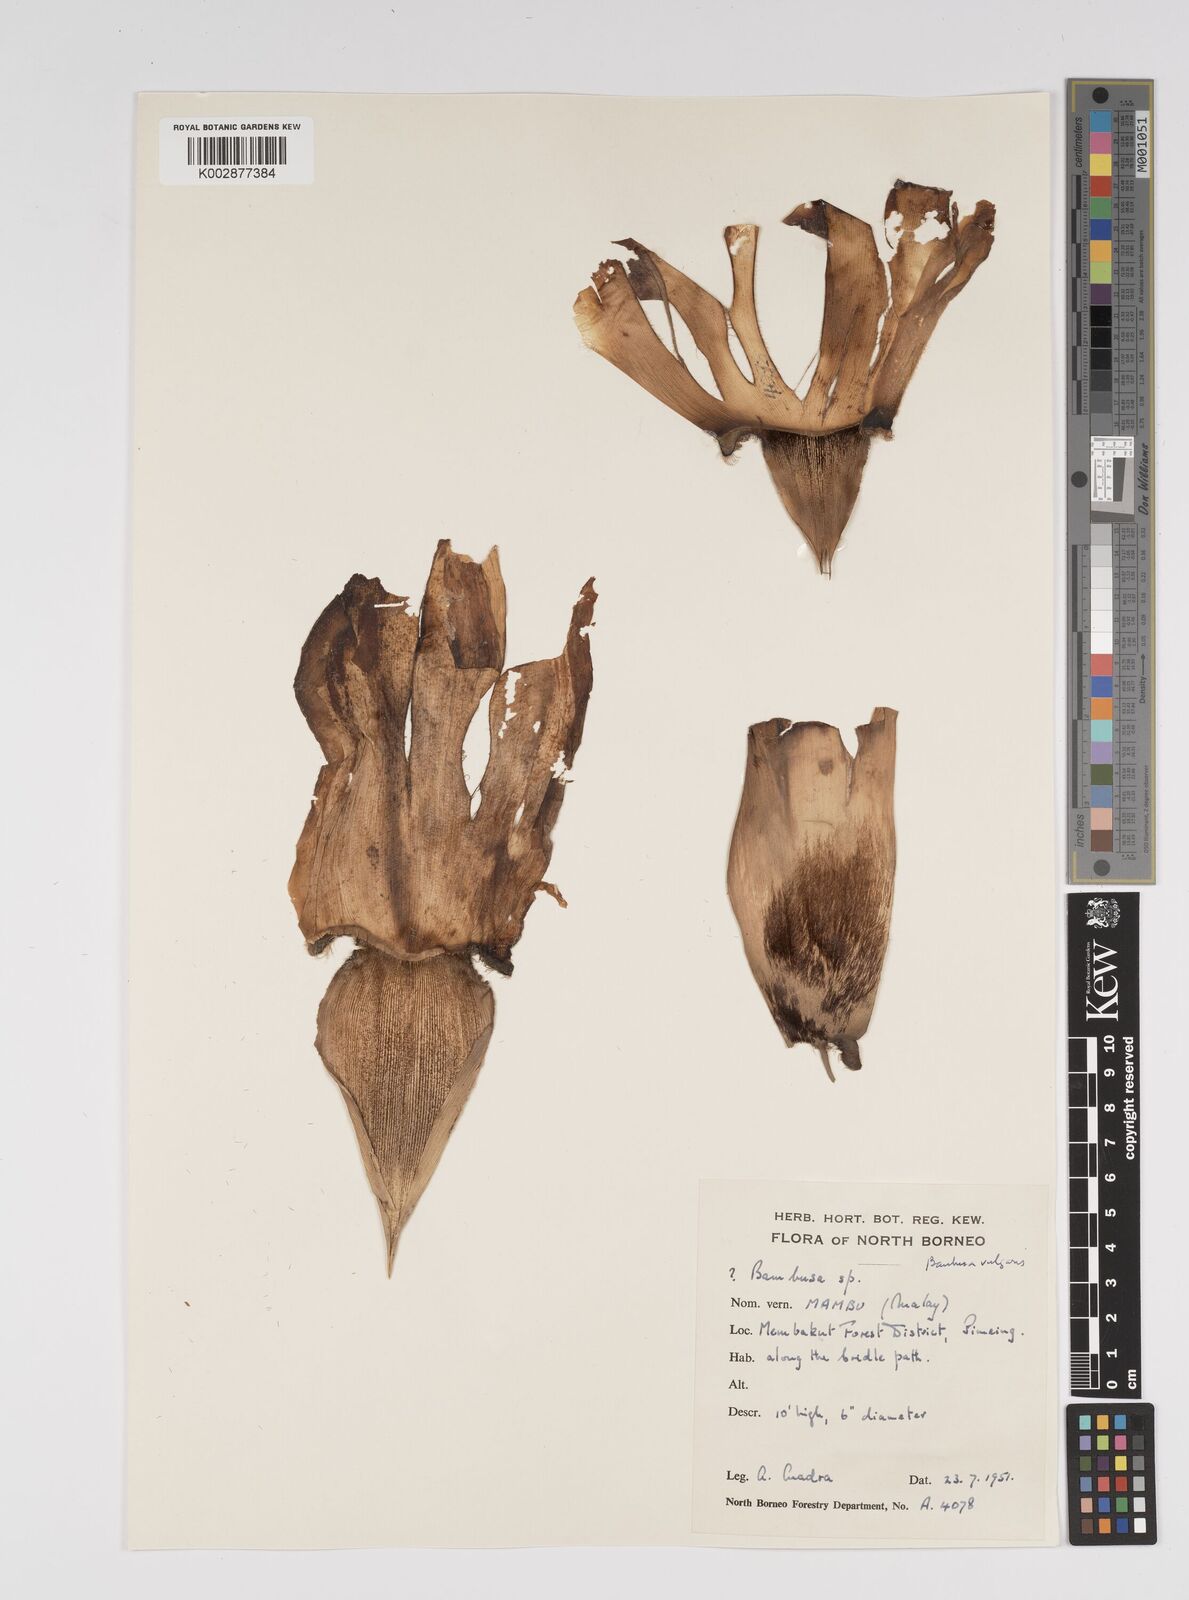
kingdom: Plantae
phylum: Tracheophyta
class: Liliopsida
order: Poales
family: Poaceae
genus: Bambusa
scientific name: Bambusa
